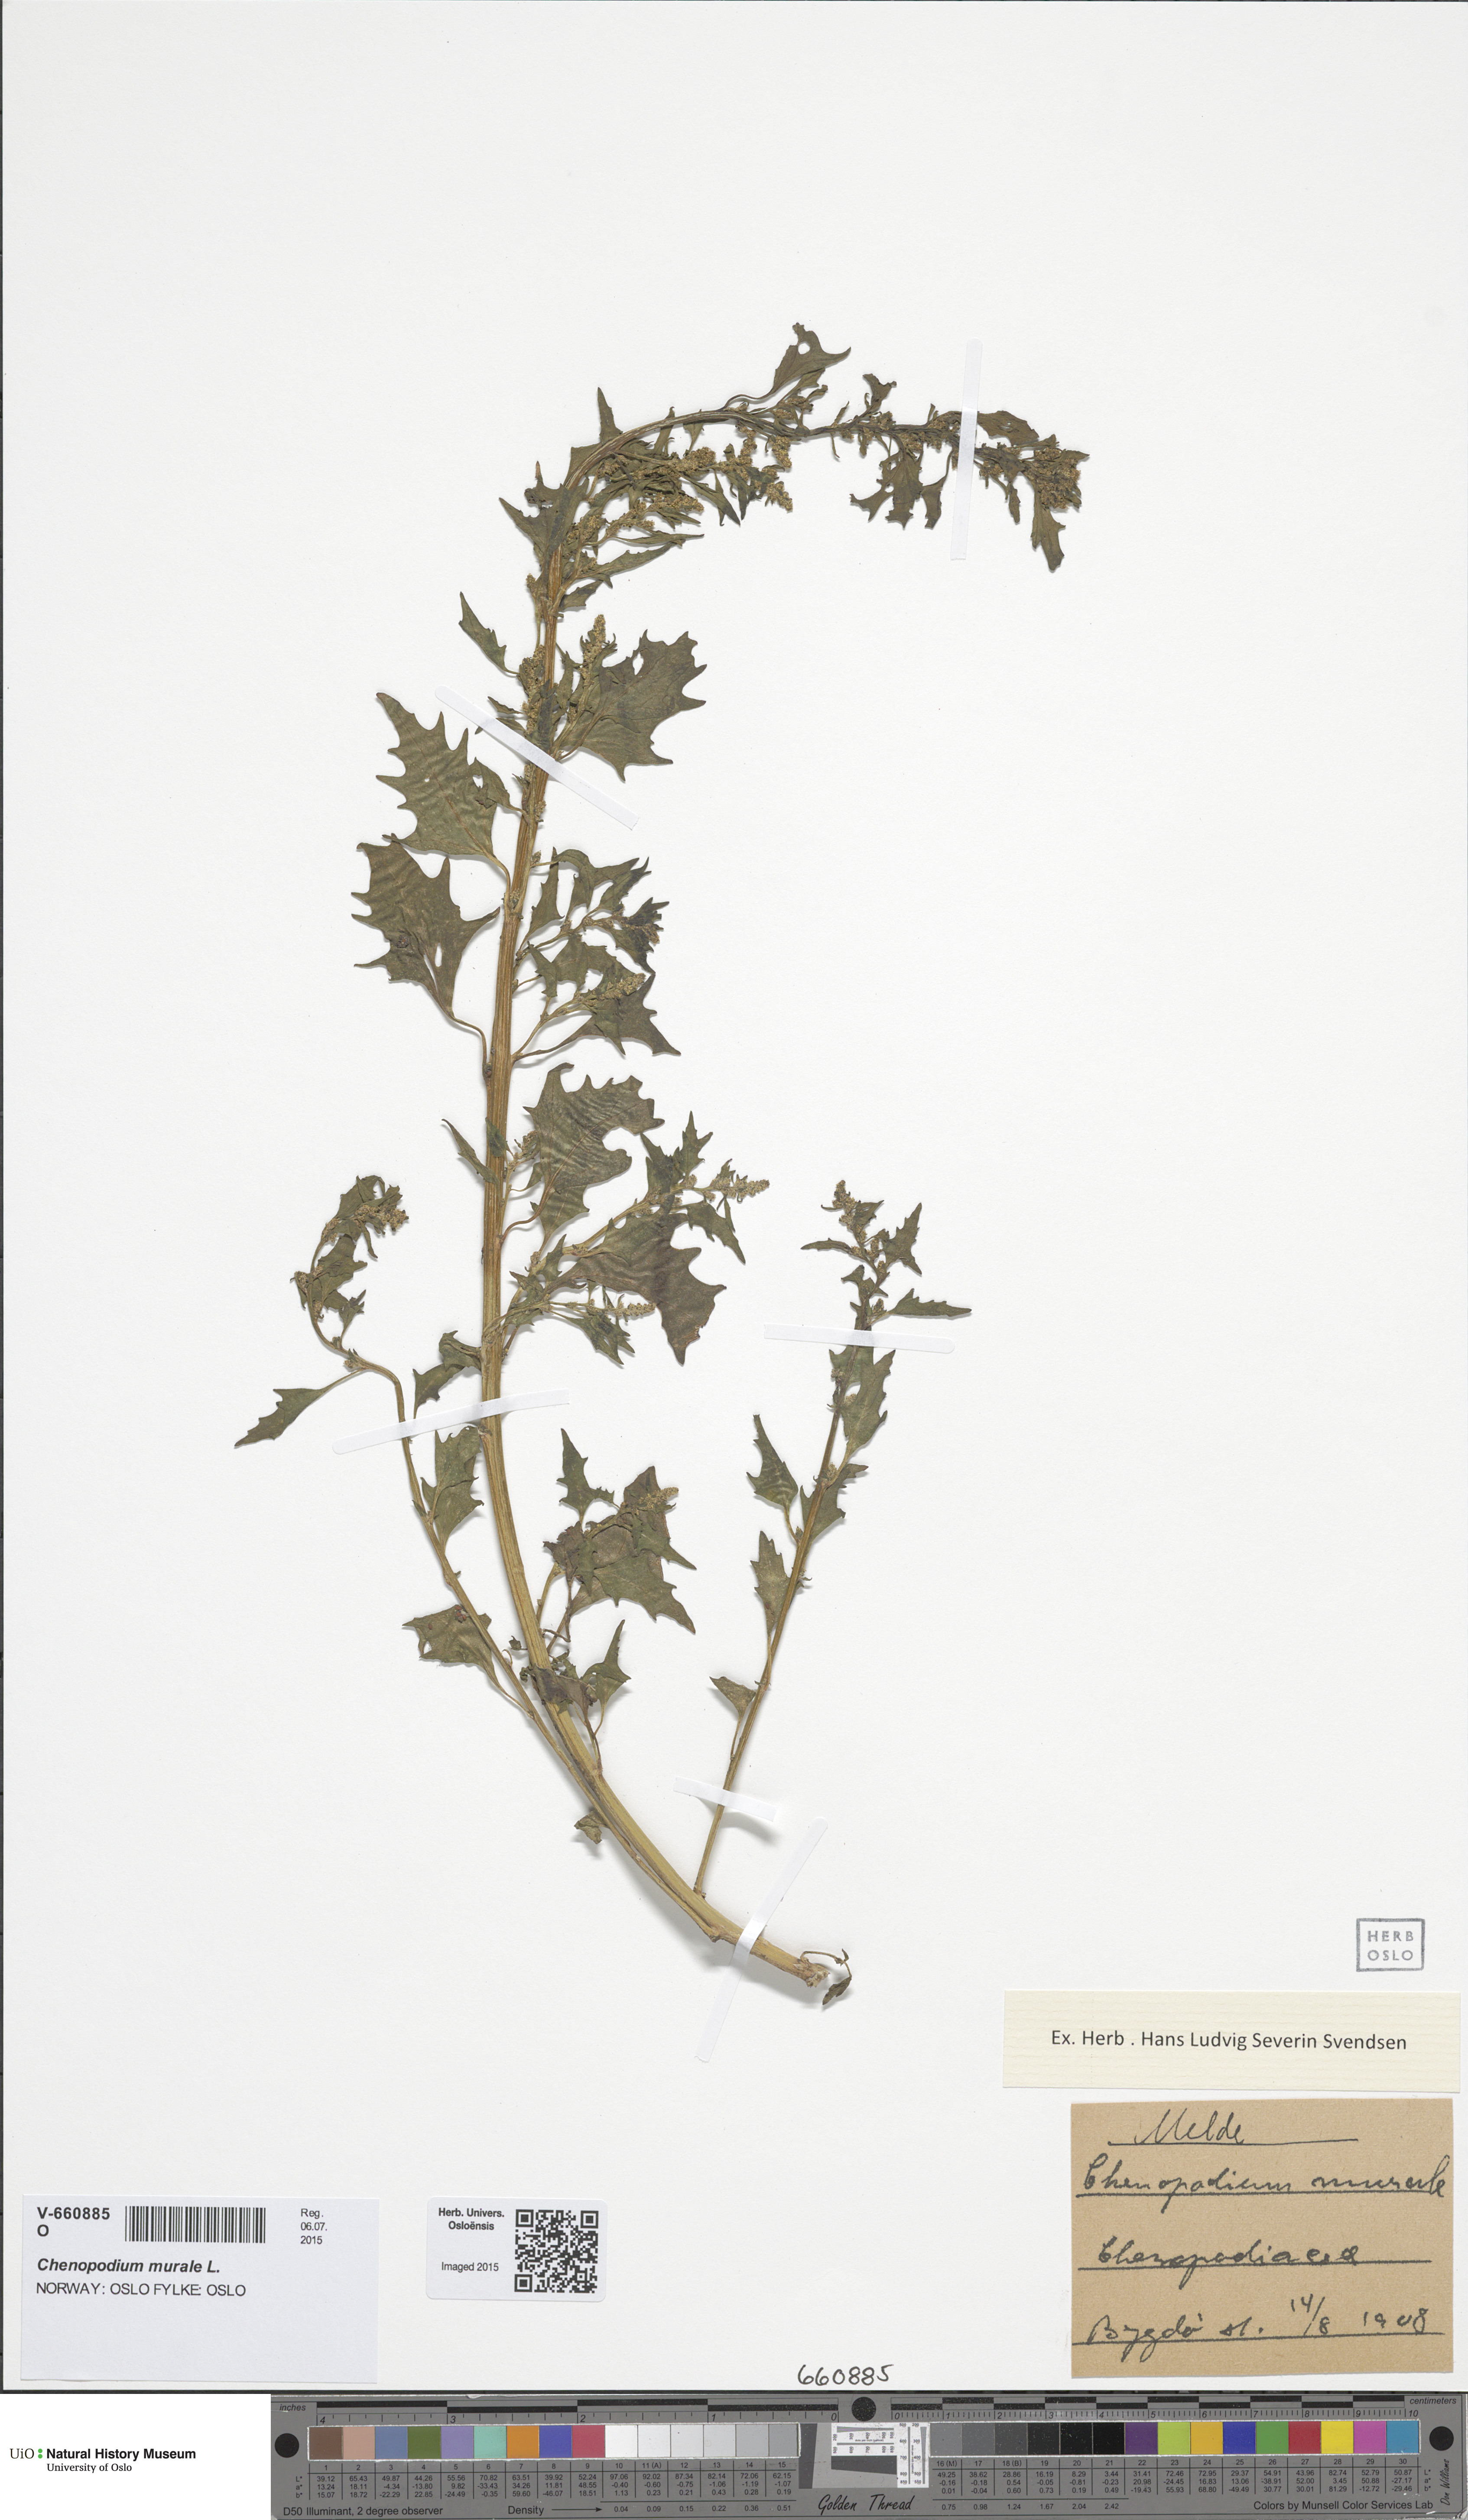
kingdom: Plantae
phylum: Tracheophyta
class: Magnoliopsida
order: Caryophyllales
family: Amaranthaceae
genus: Chenopodiastrum
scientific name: Chenopodiastrum murale
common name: Sowbane
